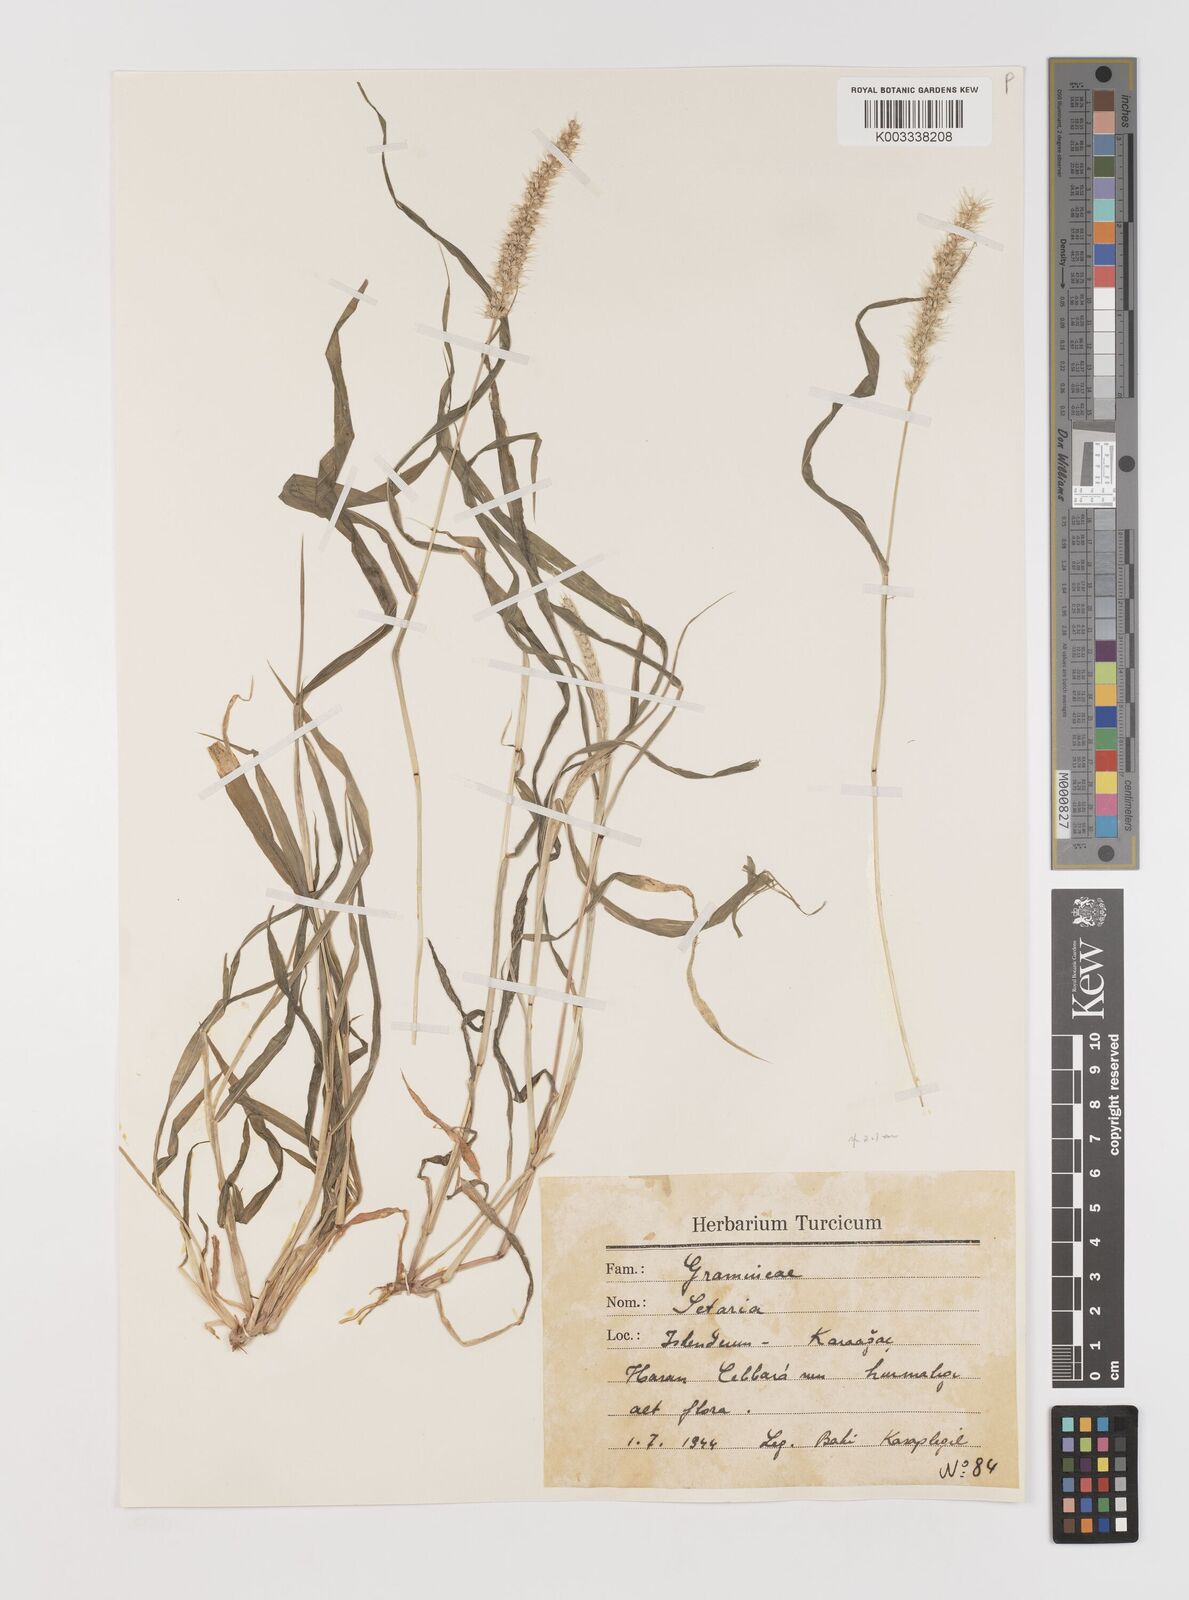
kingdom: Plantae
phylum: Tracheophyta
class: Liliopsida
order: Poales
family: Poaceae
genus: Setaria
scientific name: Setaria verticillata
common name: Hooked bristlegrass
